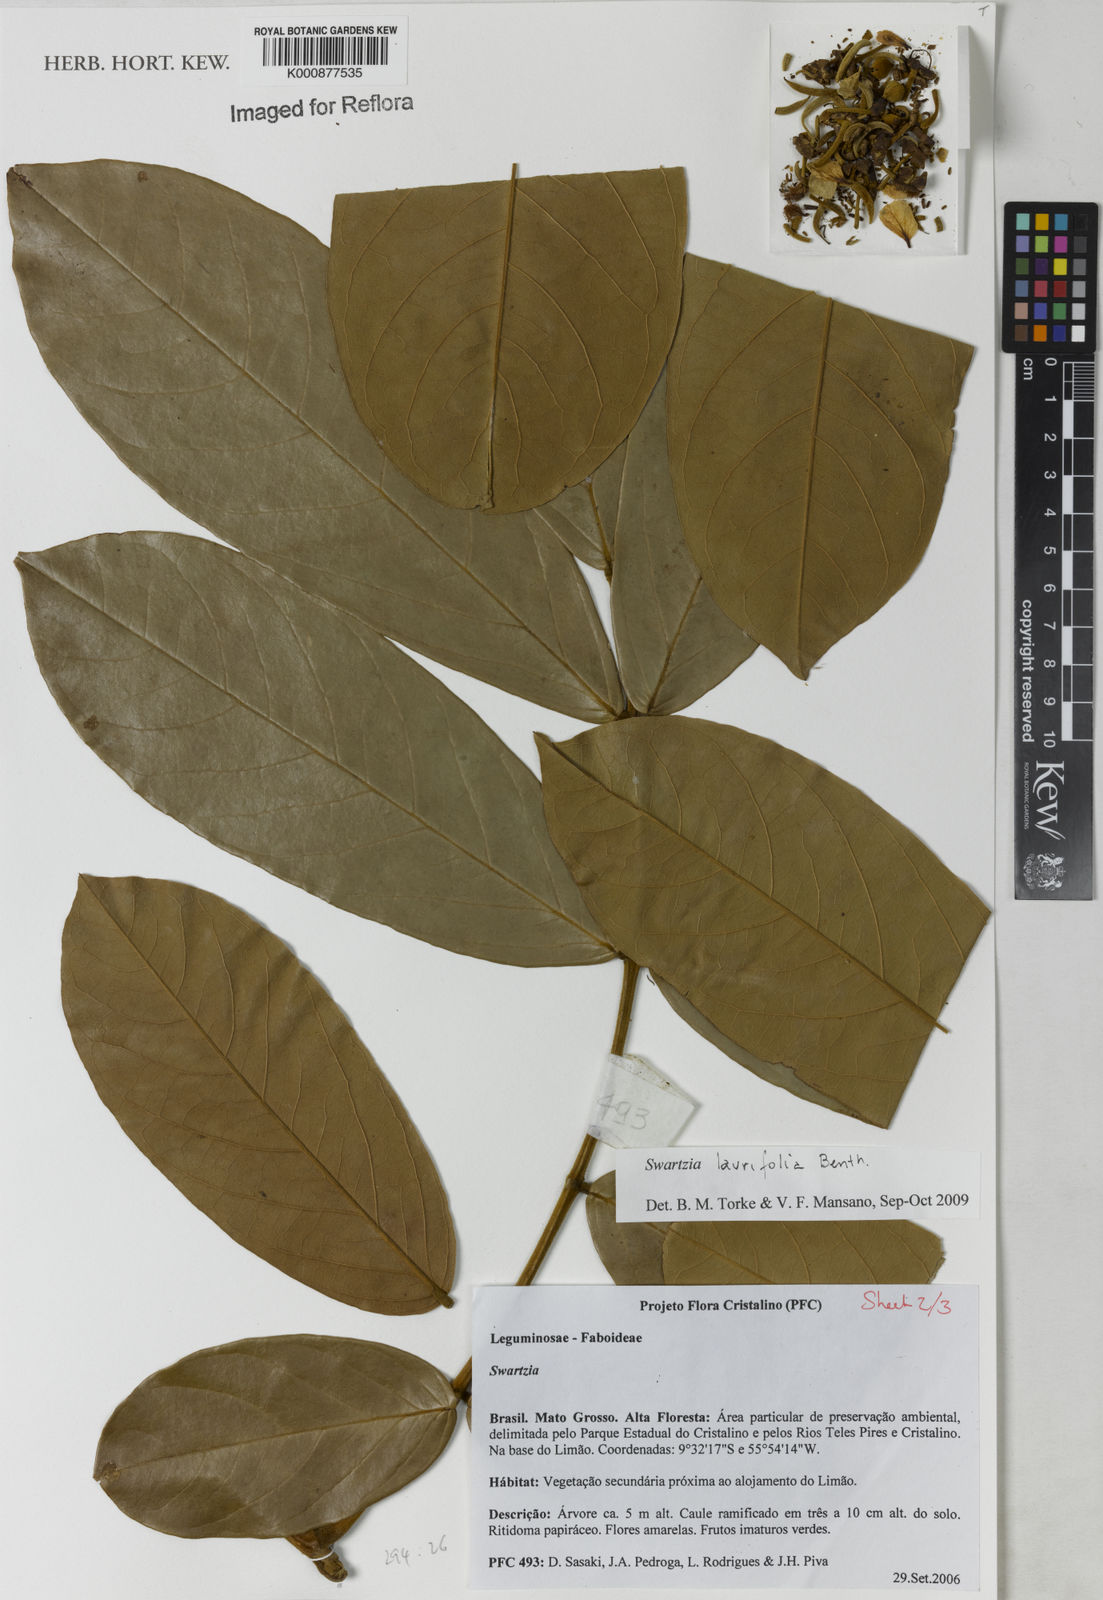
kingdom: Plantae
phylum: Tracheophyta
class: Magnoliopsida
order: Fabales
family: Fabaceae
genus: Swartzia
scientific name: Swartzia laurifolia
